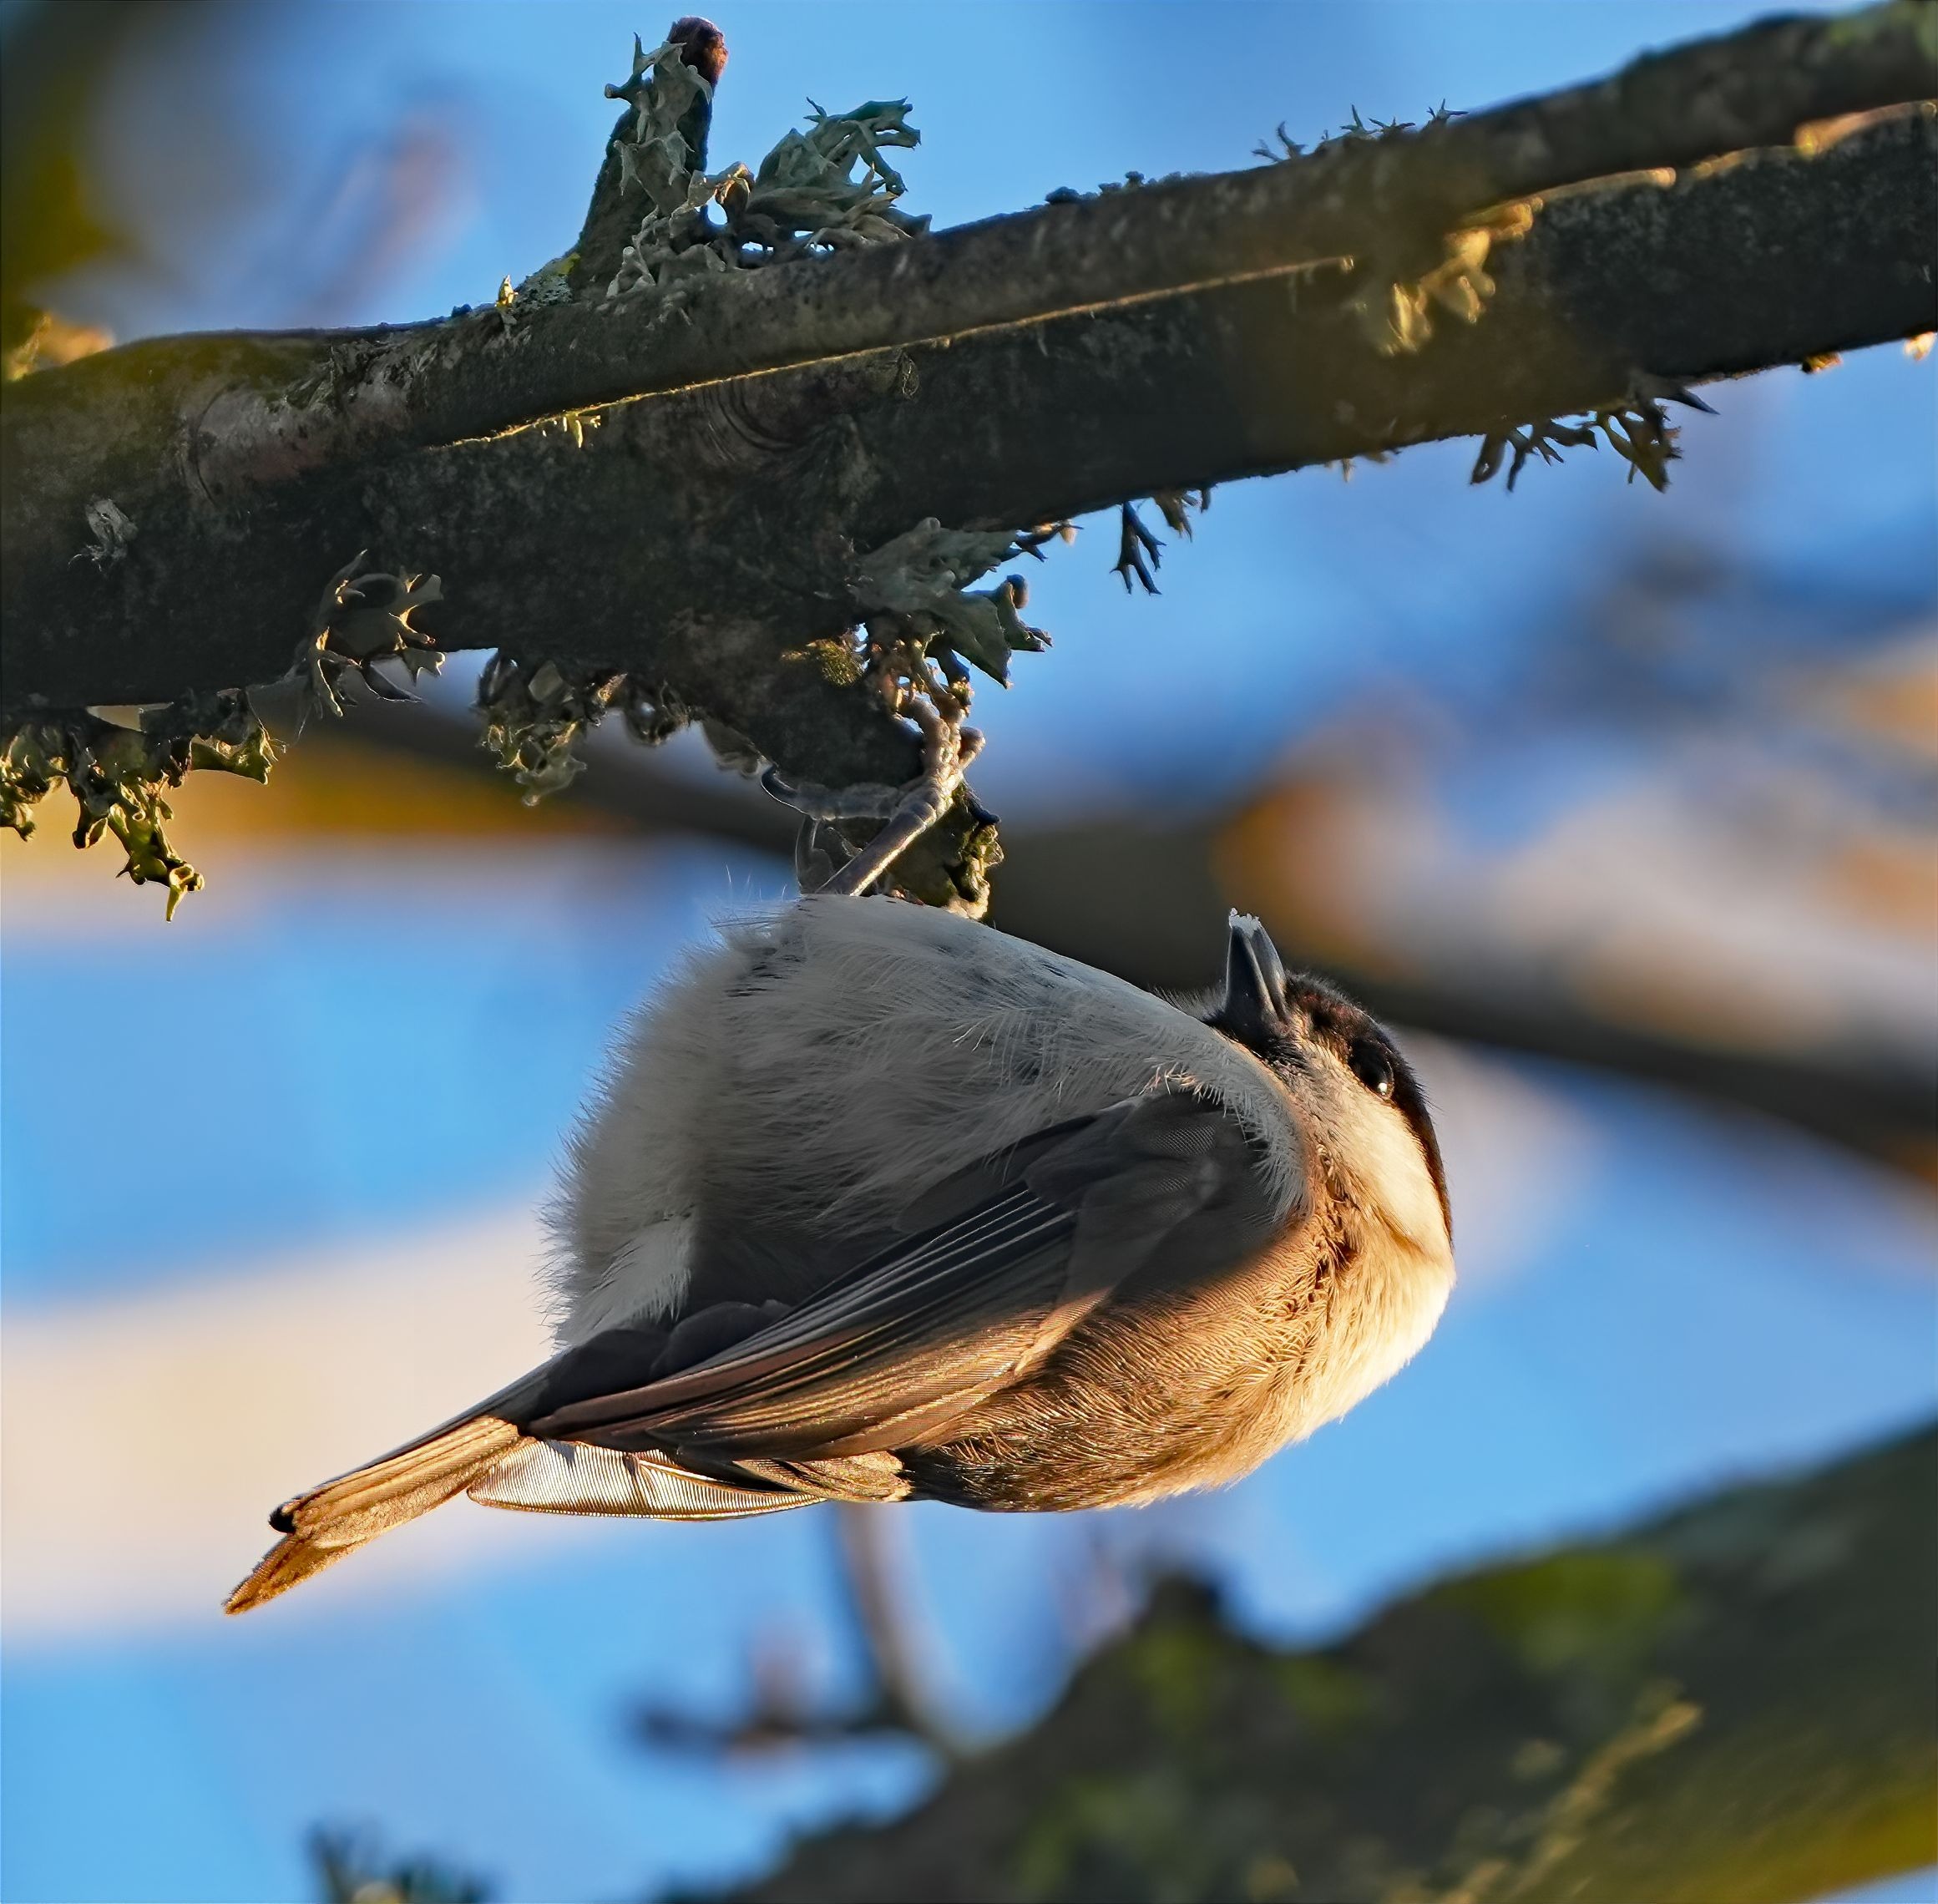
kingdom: Animalia
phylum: Chordata
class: Aves
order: Passeriformes
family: Paridae
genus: Poecile
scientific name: Poecile palustris
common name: Sumpmejse
